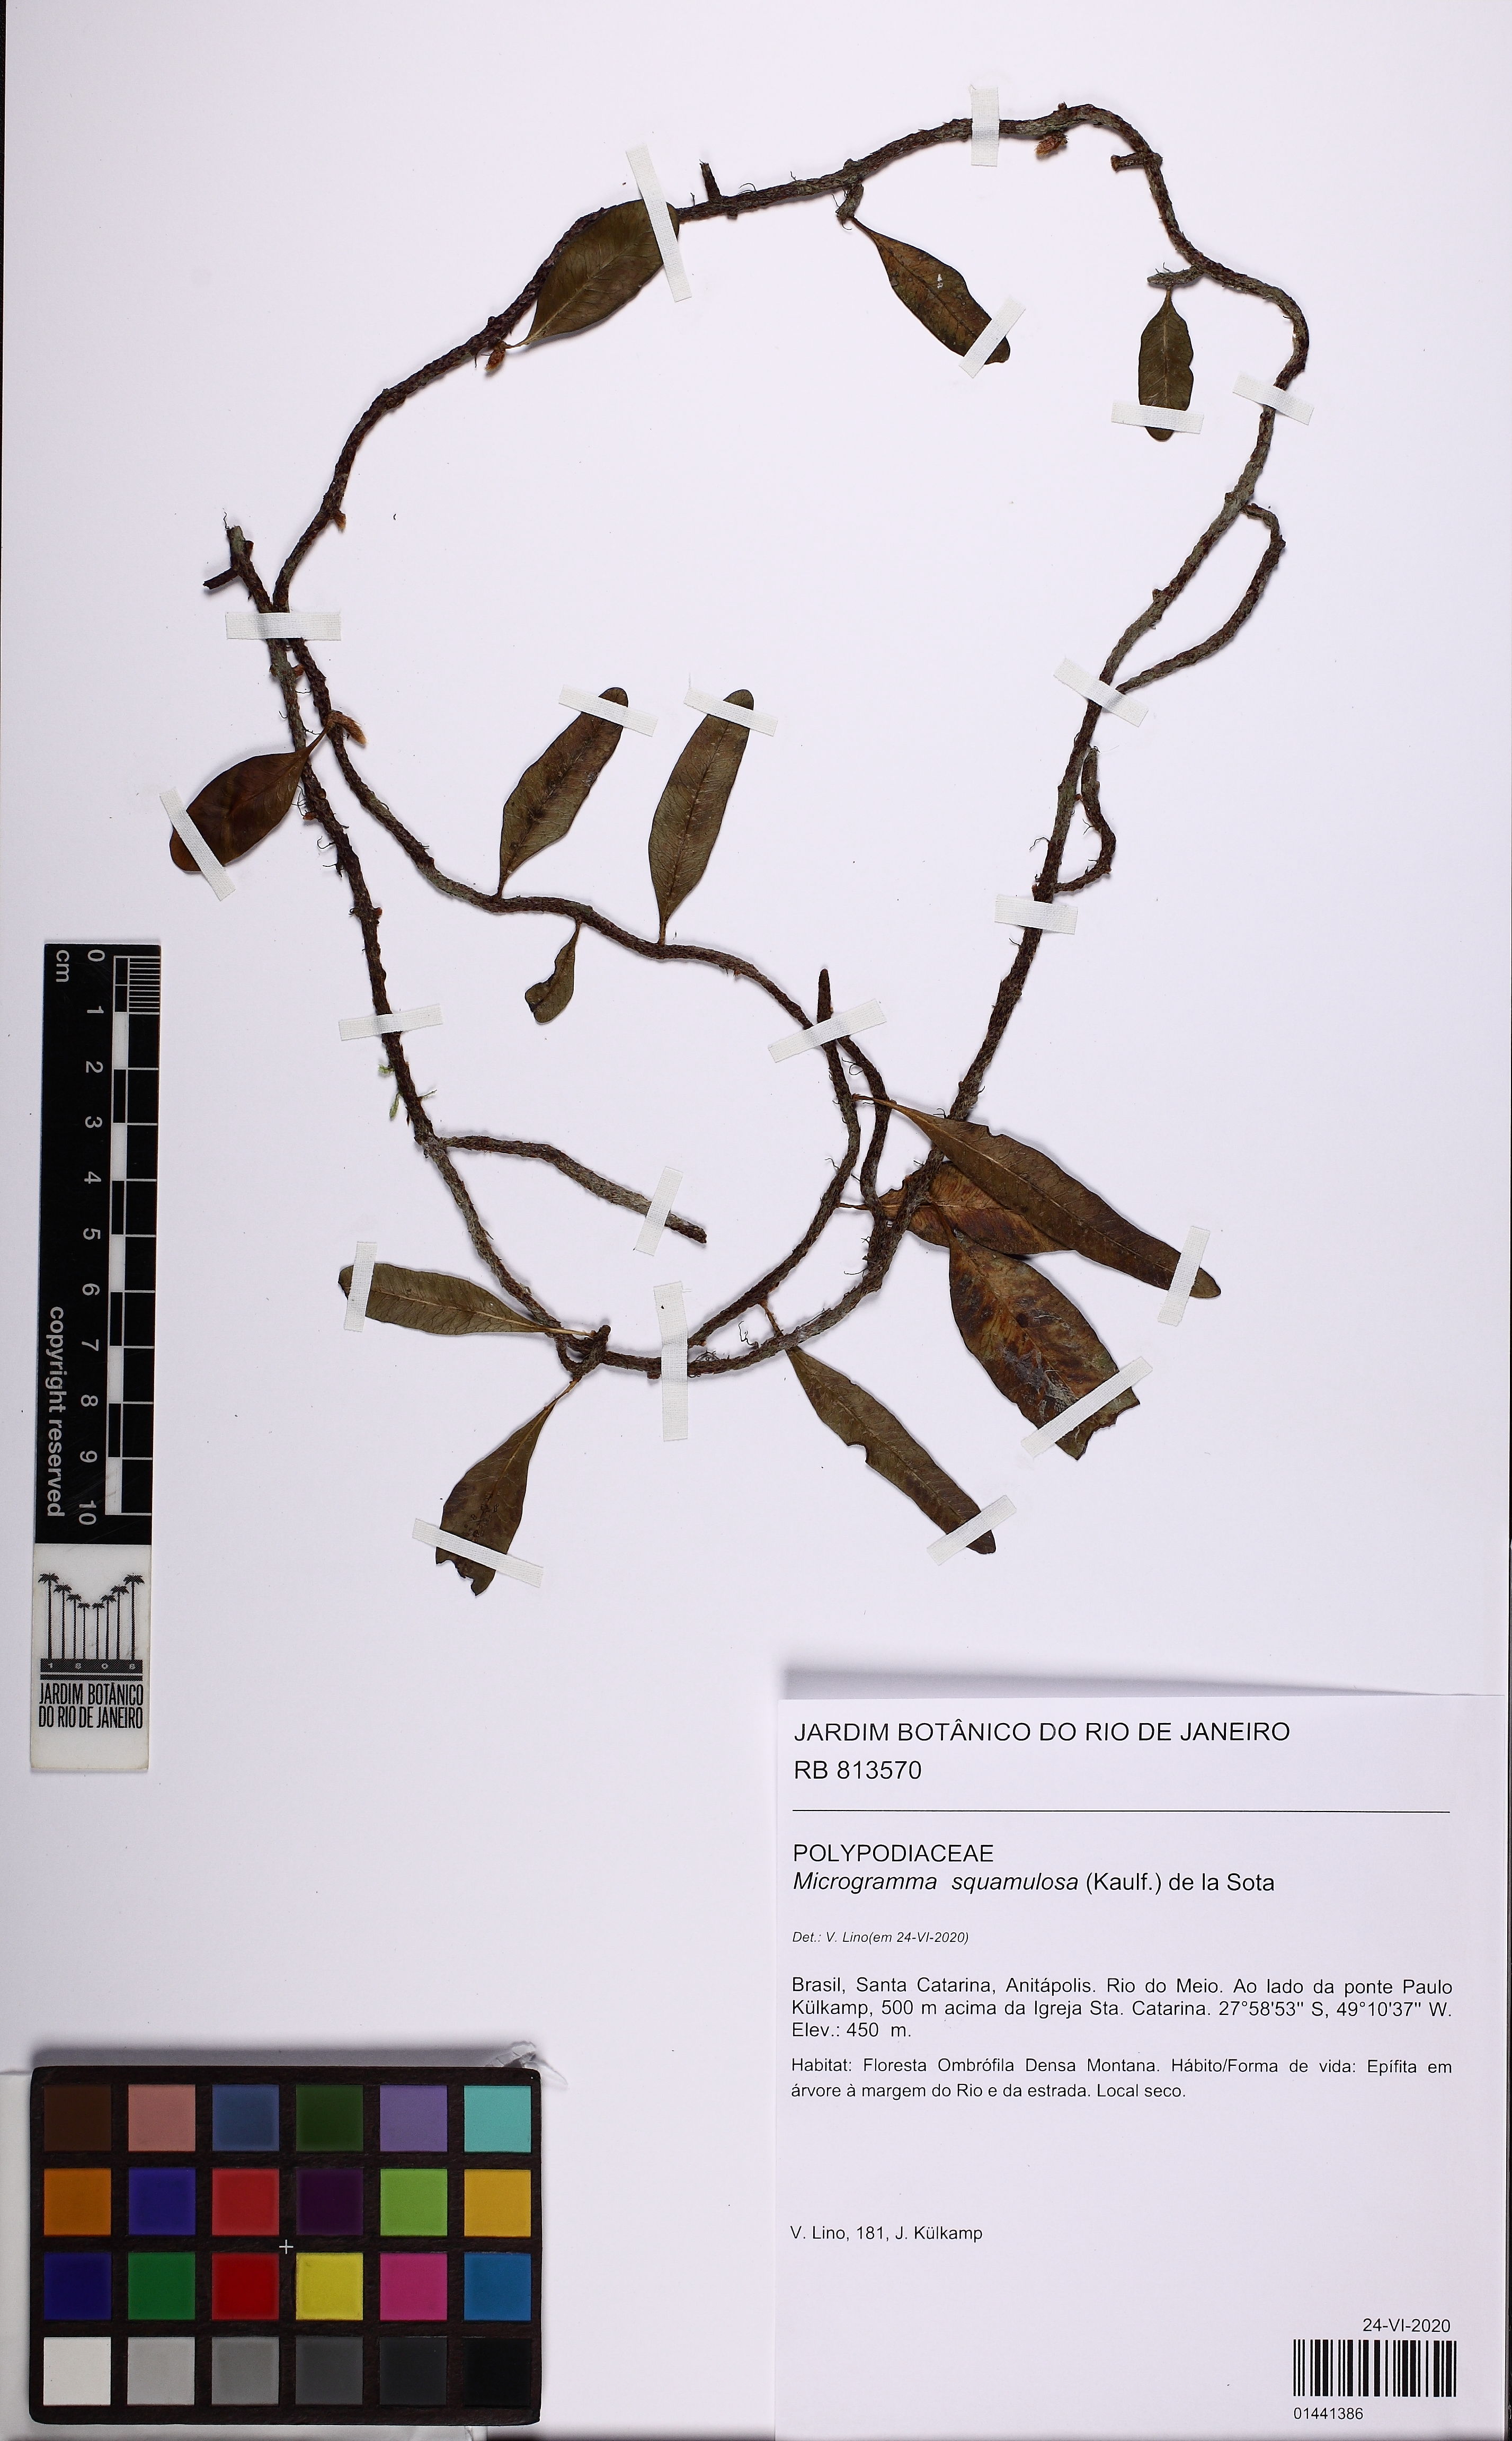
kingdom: Plantae
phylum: Tracheophyta
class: Polypodiopsida
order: Polypodiales
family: Polypodiaceae
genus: Microgramma
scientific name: Microgramma squamulosa
